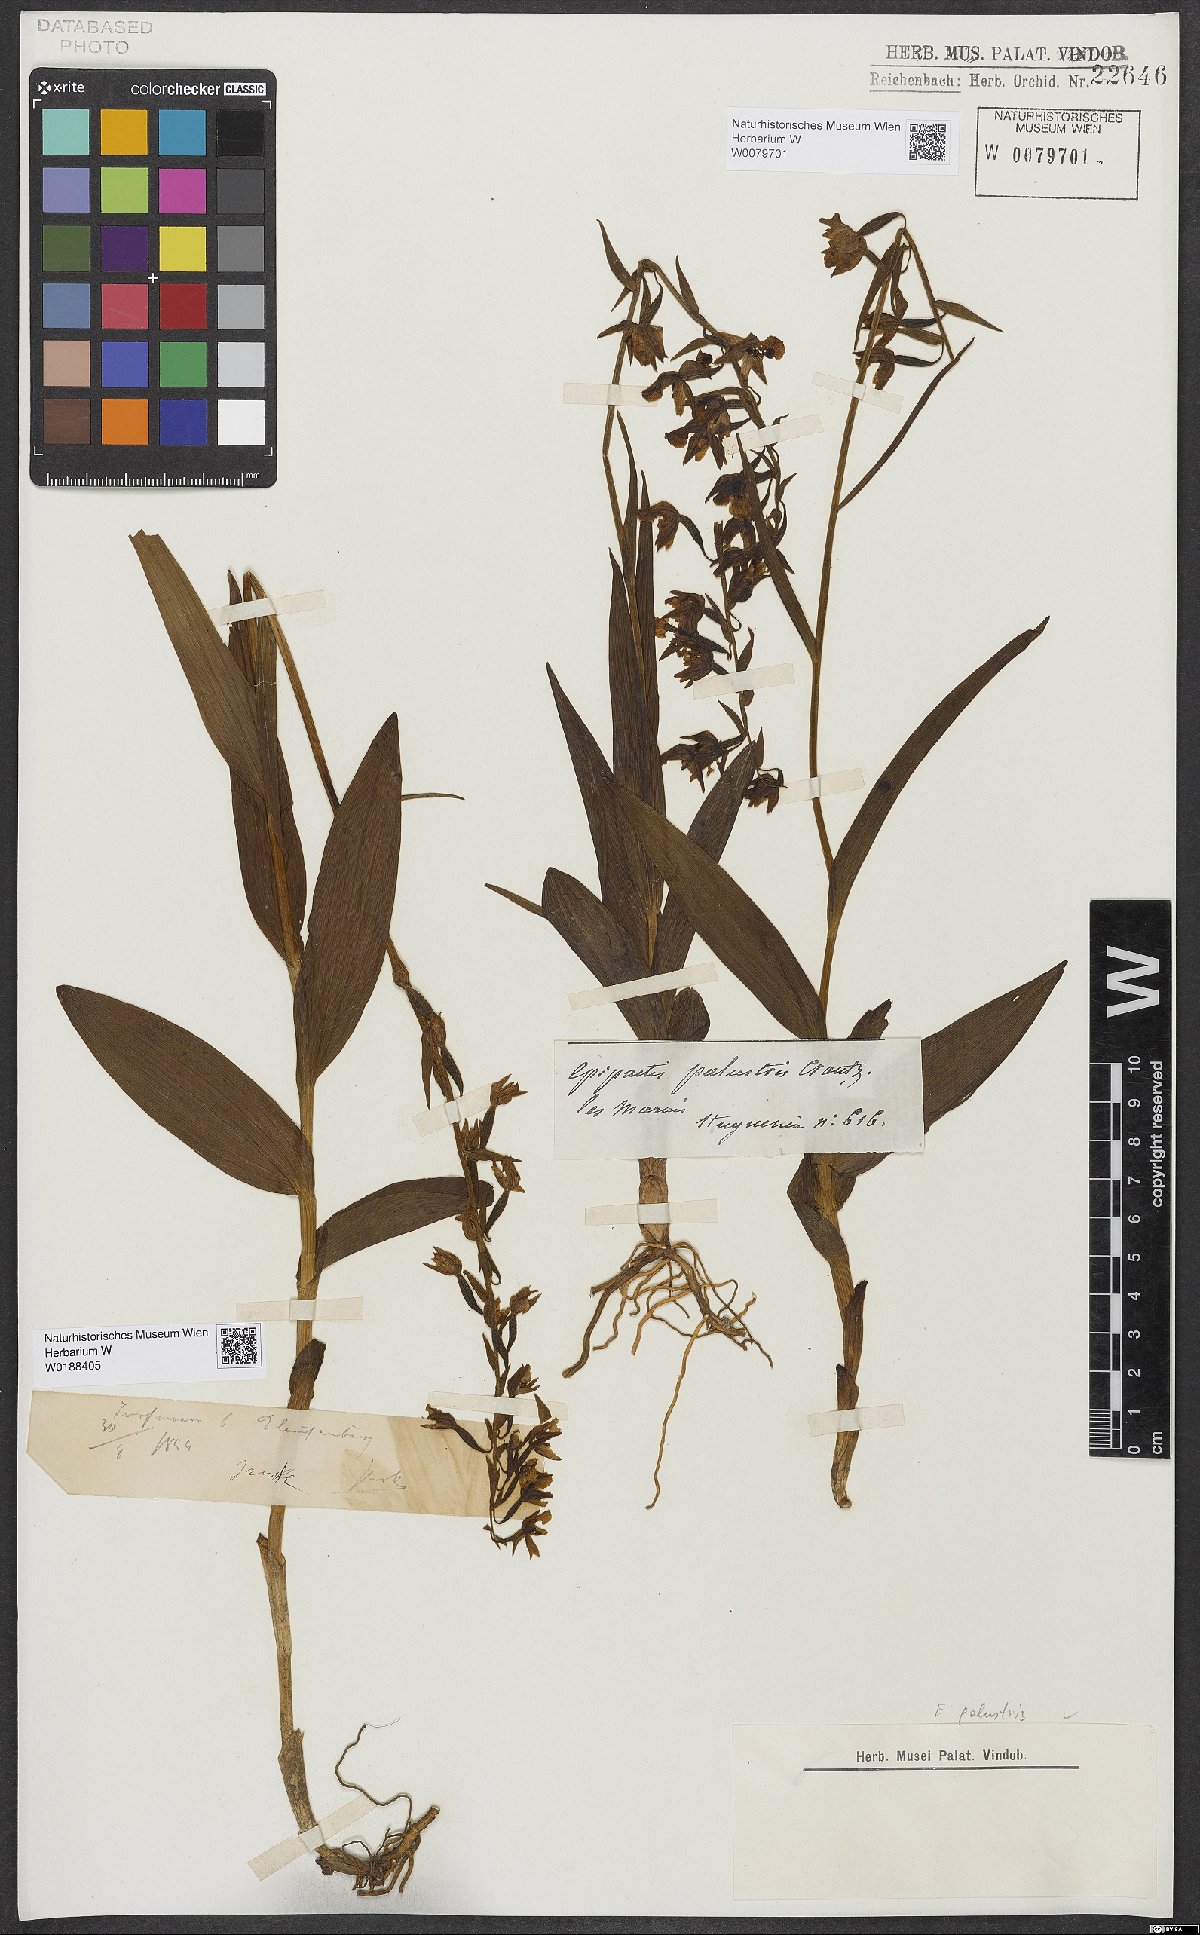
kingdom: Plantae
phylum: Tracheophyta
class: Liliopsida
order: Asparagales
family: Orchidaceae
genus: Epipactis
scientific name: Epipactis palustris
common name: Marsh helleborine
